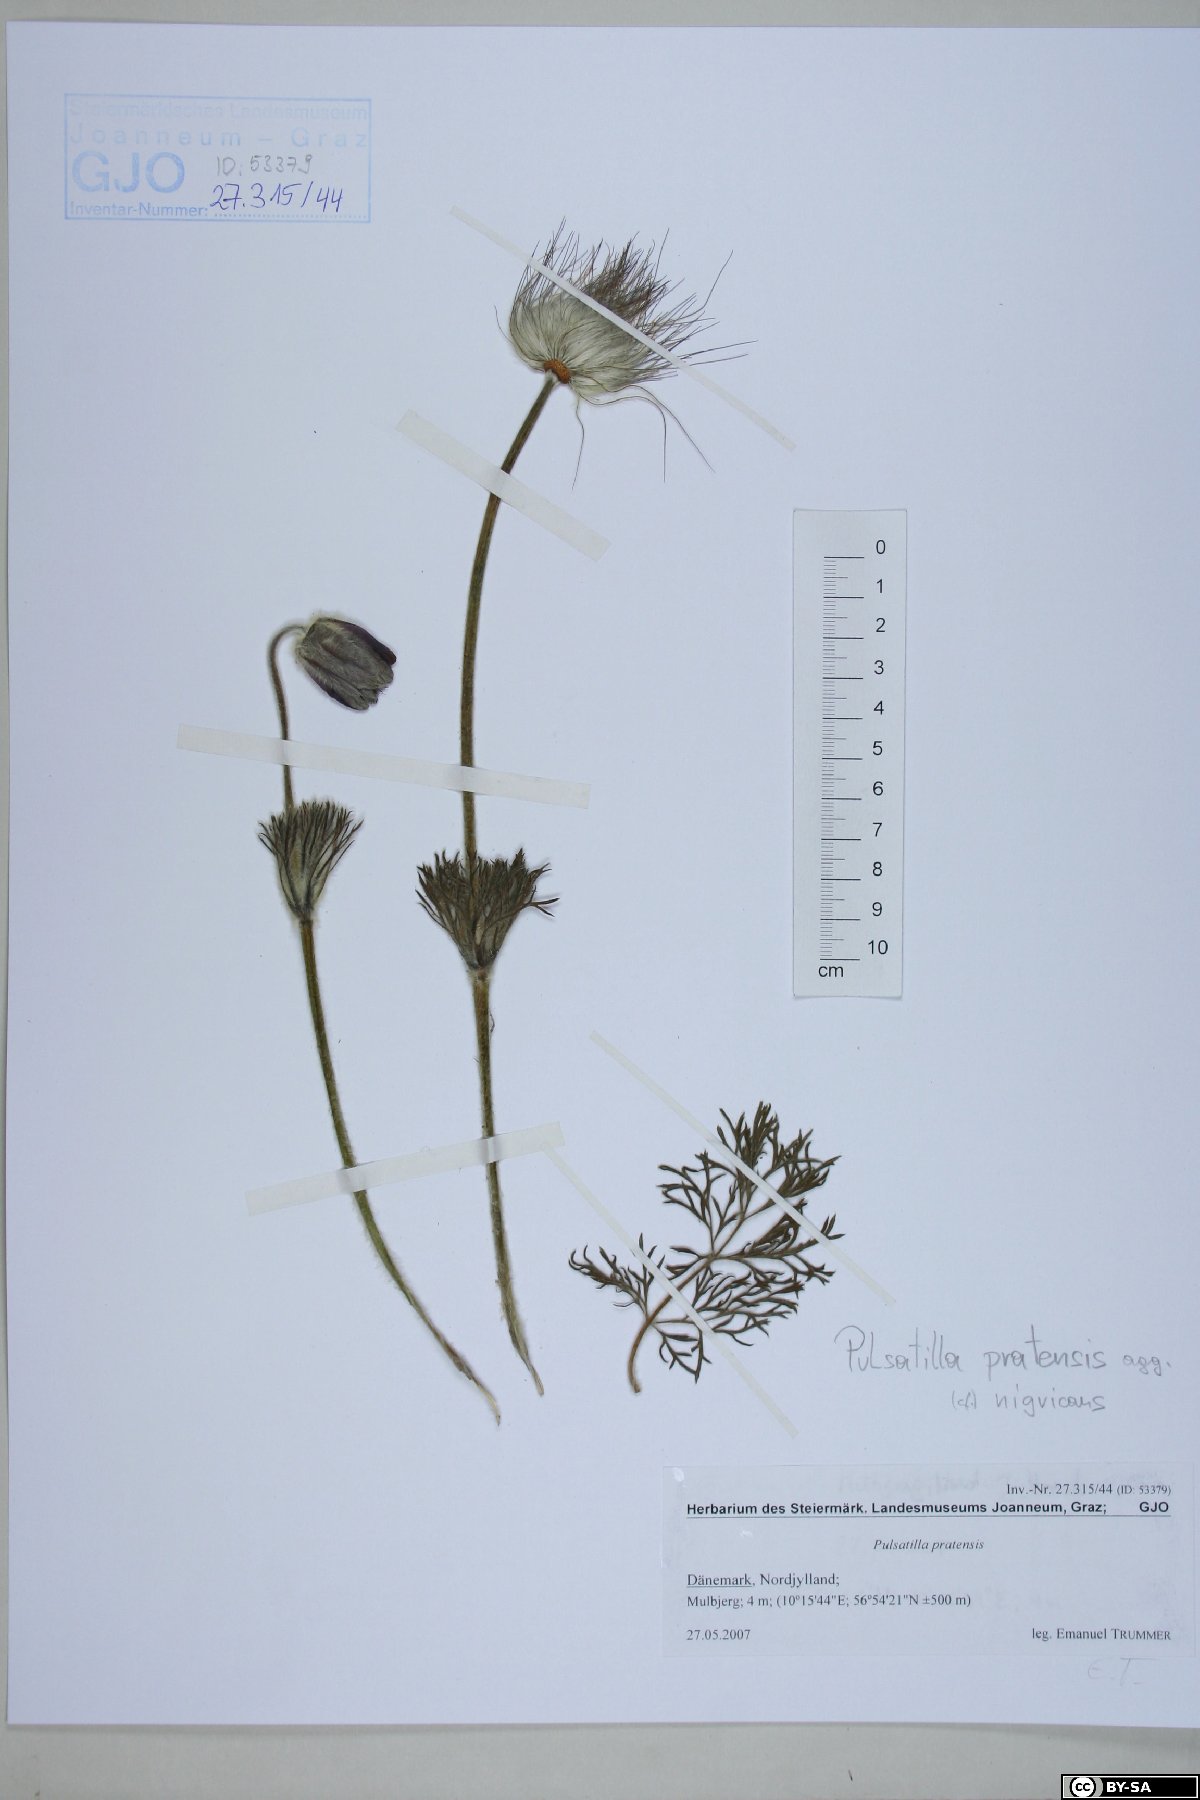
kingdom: Plantae
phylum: Tracheophyta
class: Magnoliopsida
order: Ranunculales
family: Ranunculaceae
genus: Pulsatilla
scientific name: Pulsatilla pratensis
